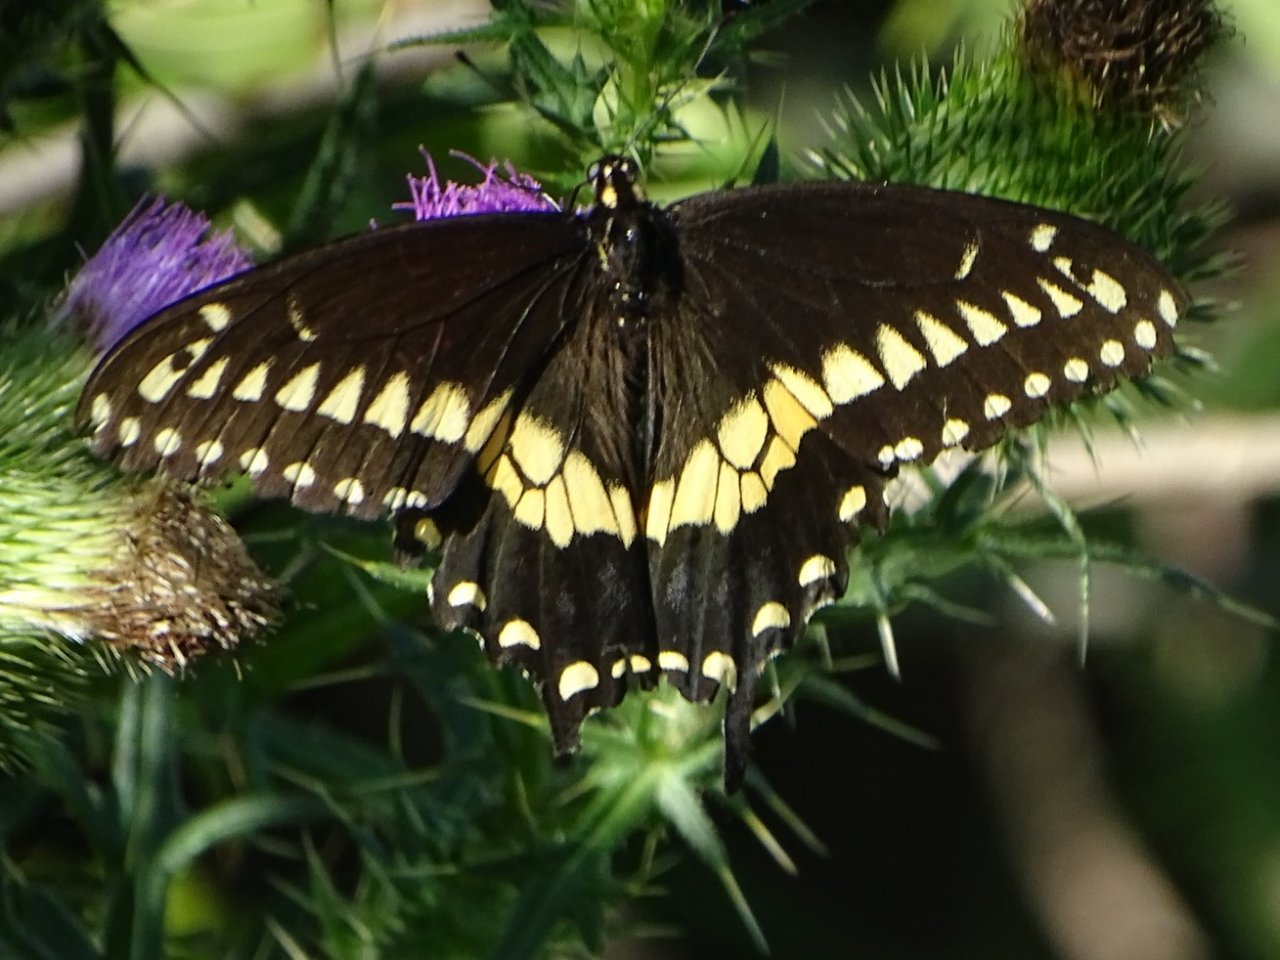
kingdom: Animalia
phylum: Arthropoda
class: Insecta
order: Lepidoptera
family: Papilionidae
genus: Papilio
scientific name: Papilio polyxenes
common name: Black Swallowtail
